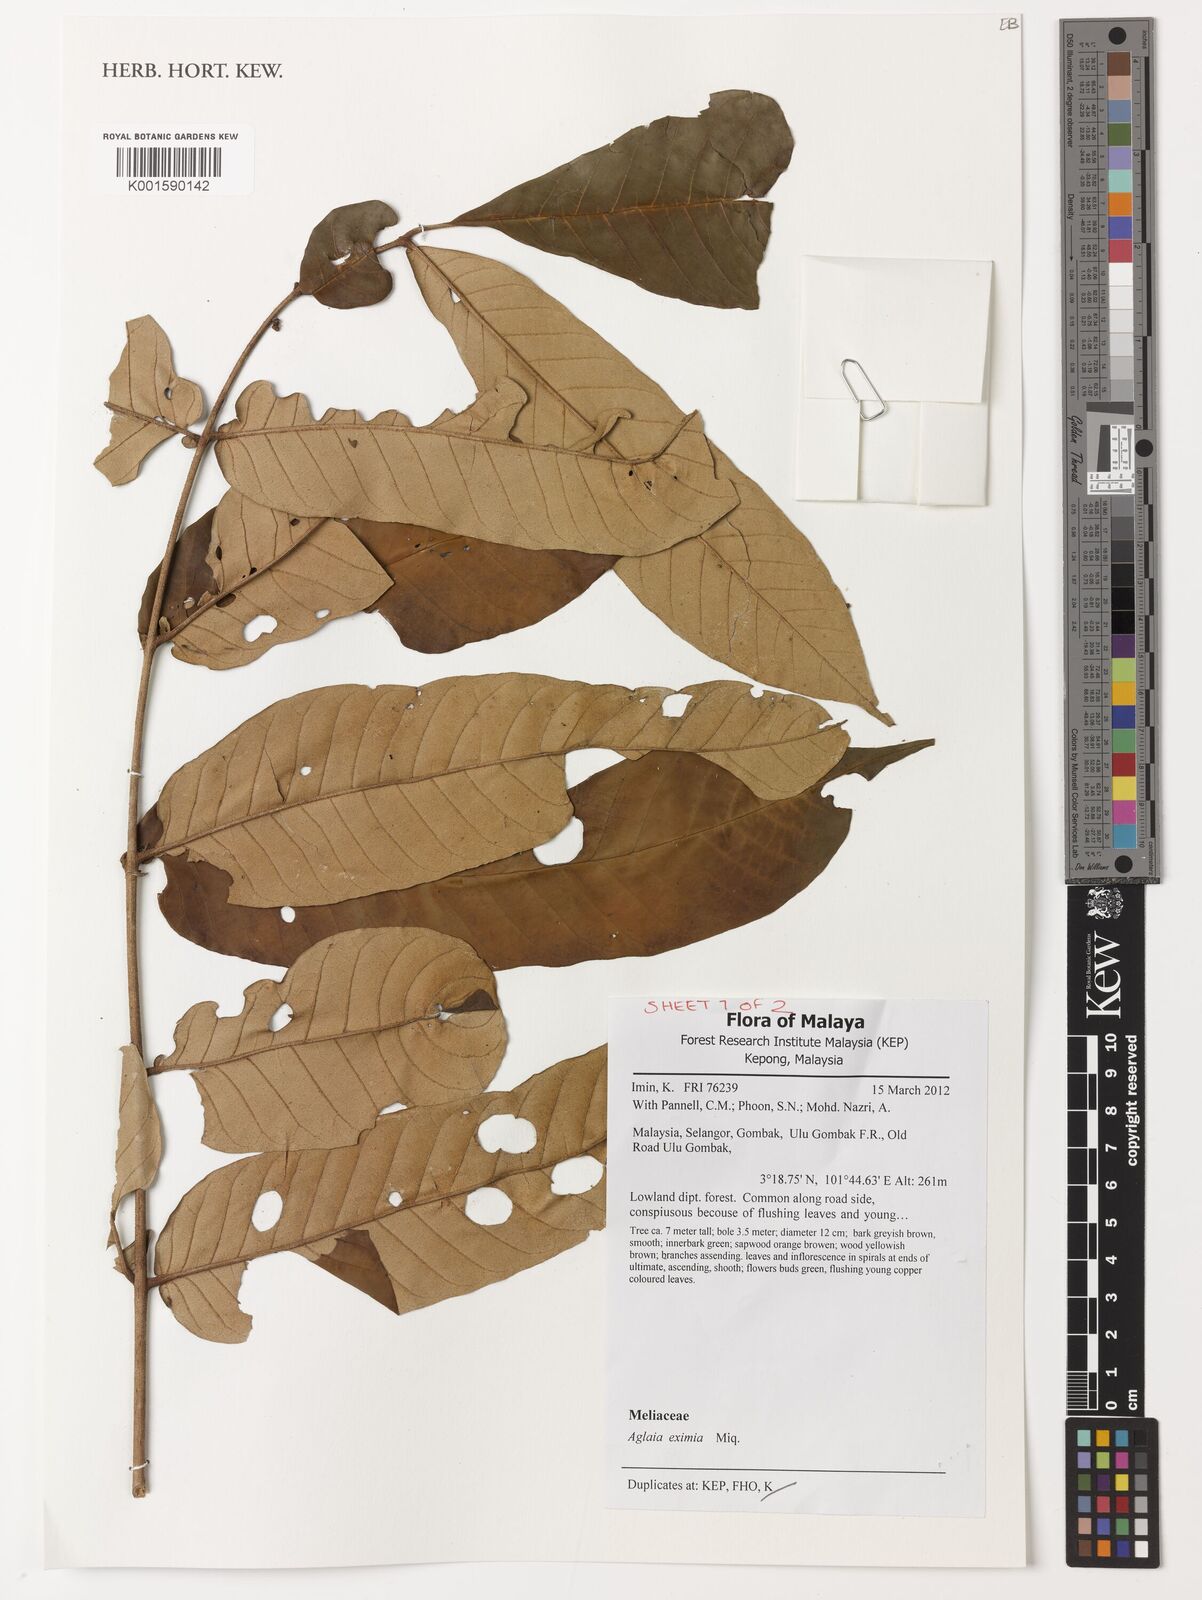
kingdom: Plantae
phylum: Tracheophyta
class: Magnoliopsida
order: Sapindales
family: Meliaceae
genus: Aglaia
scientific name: Aglaia eximia
